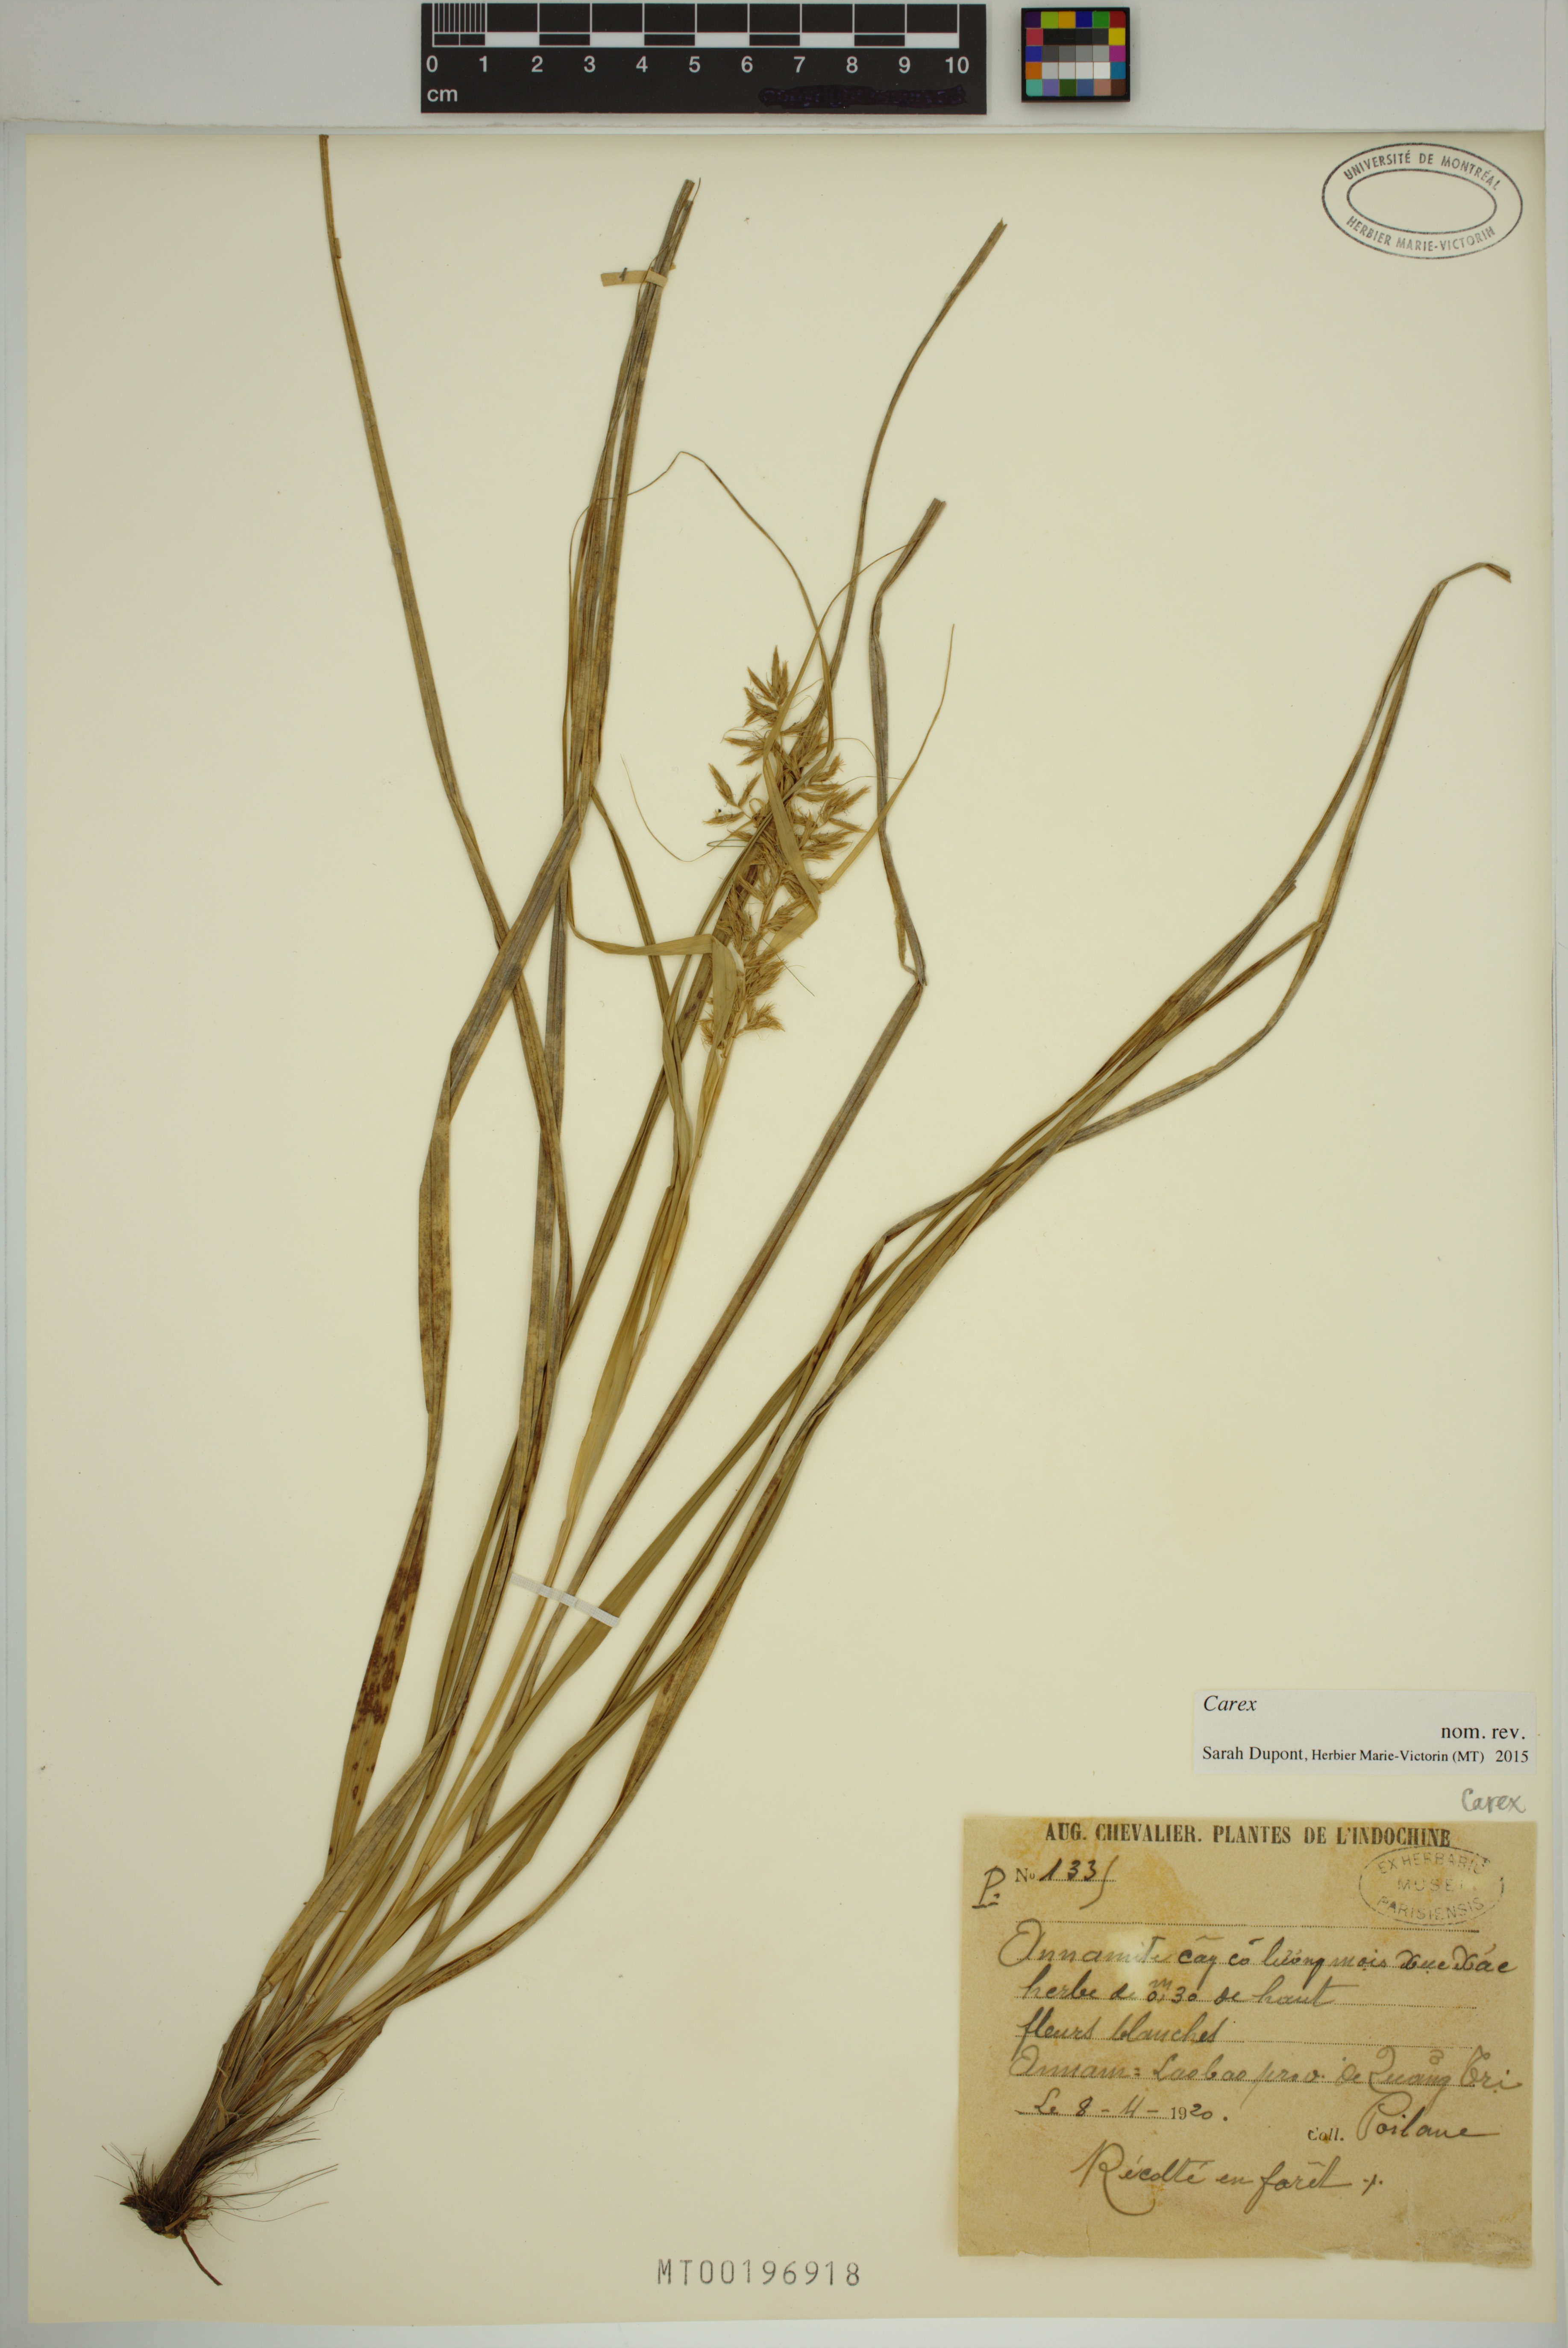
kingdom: Plantae
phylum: Tracheophyta
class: Liliopsida
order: Poales
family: Cyperaceae
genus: Carex
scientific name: Carex
